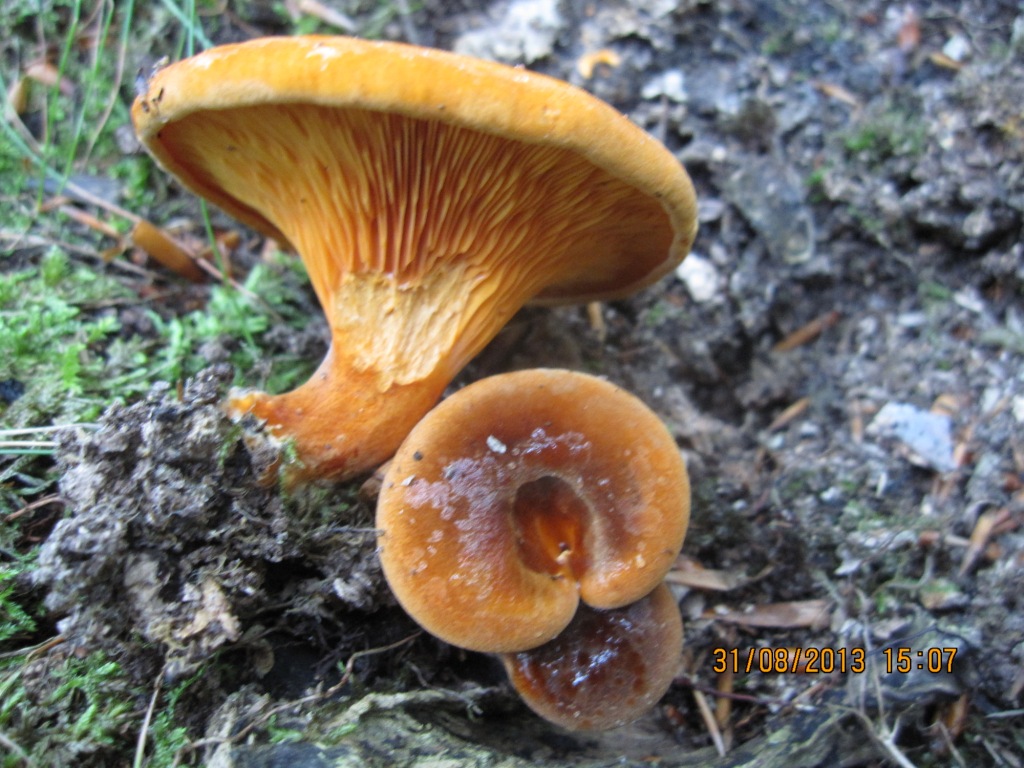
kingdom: Fungi
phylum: Basidiomycota
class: Agaricomycetes
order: Boletales
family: Hygrophoropsidaceae
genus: Hygrophoropsis
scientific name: Hygrophoropsis rufa
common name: brunfiltet orangekantarel
